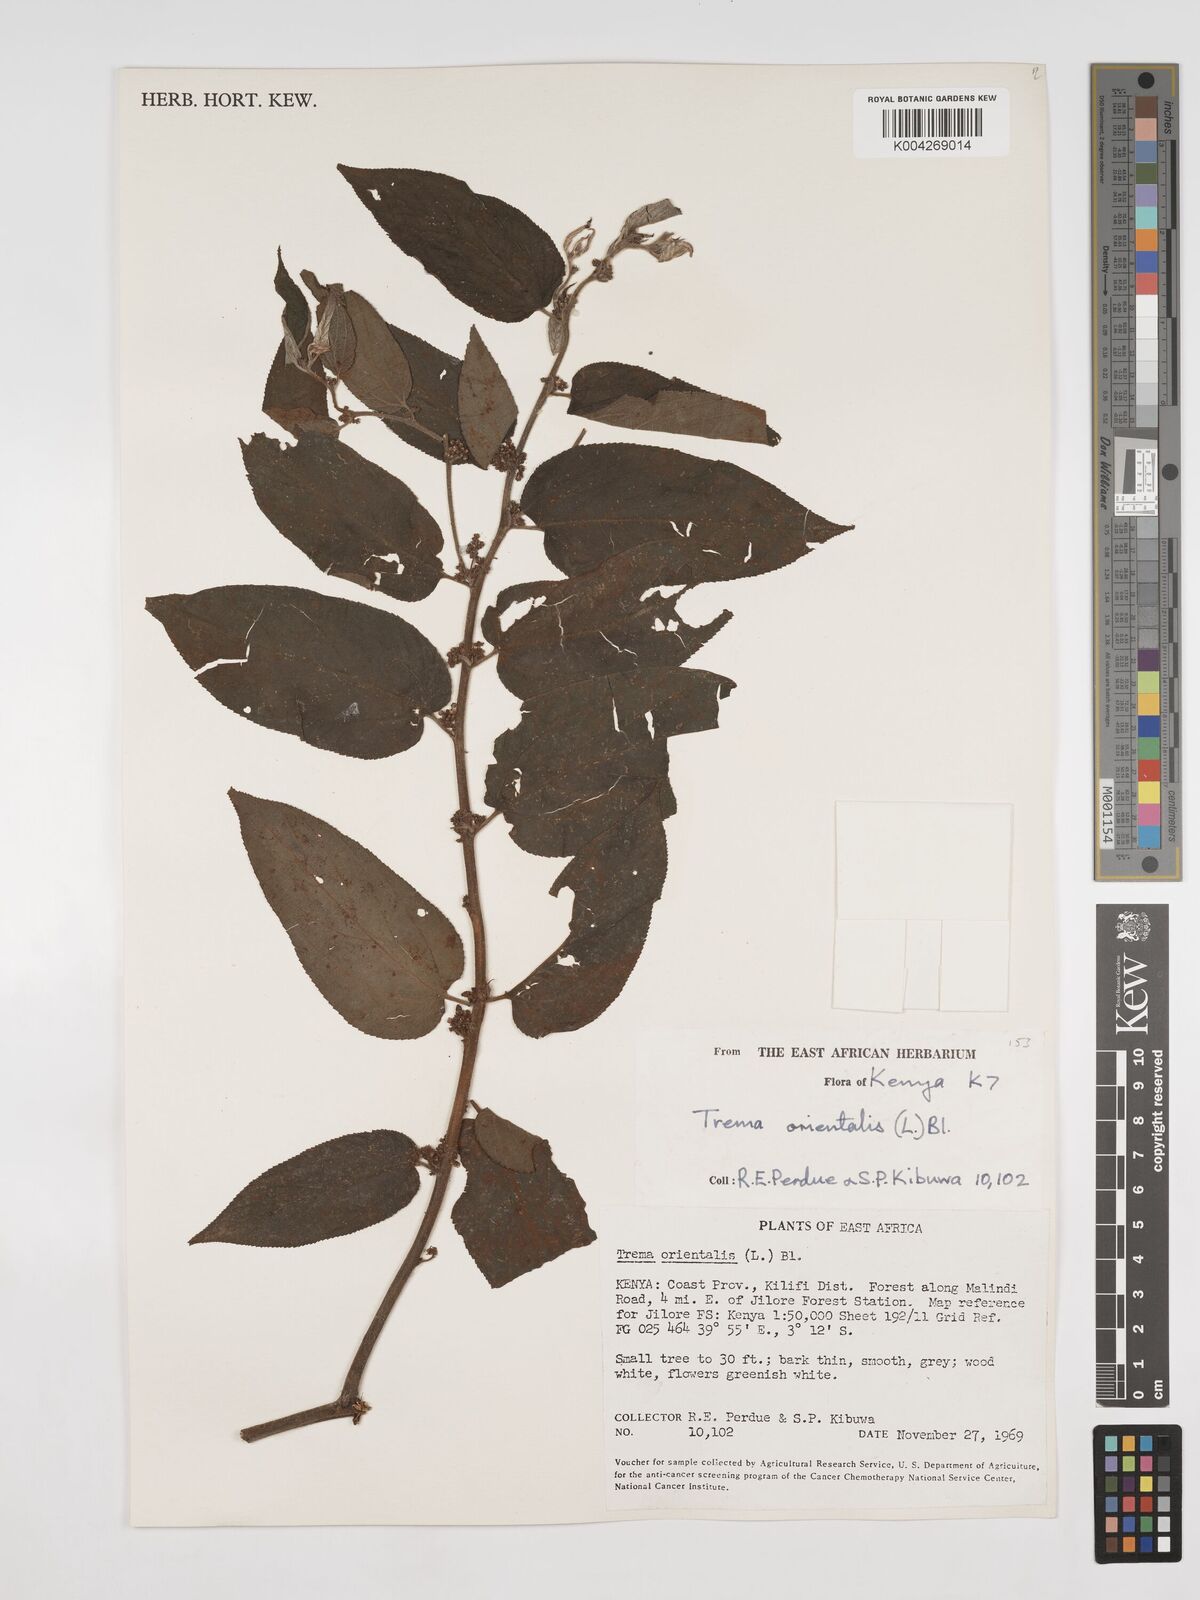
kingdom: Plantae
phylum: Tracheophyta
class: Magnoliopsida
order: Rosales
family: Cannabaceae
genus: Trema
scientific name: Trema orientale
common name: Indian charcoal tree
